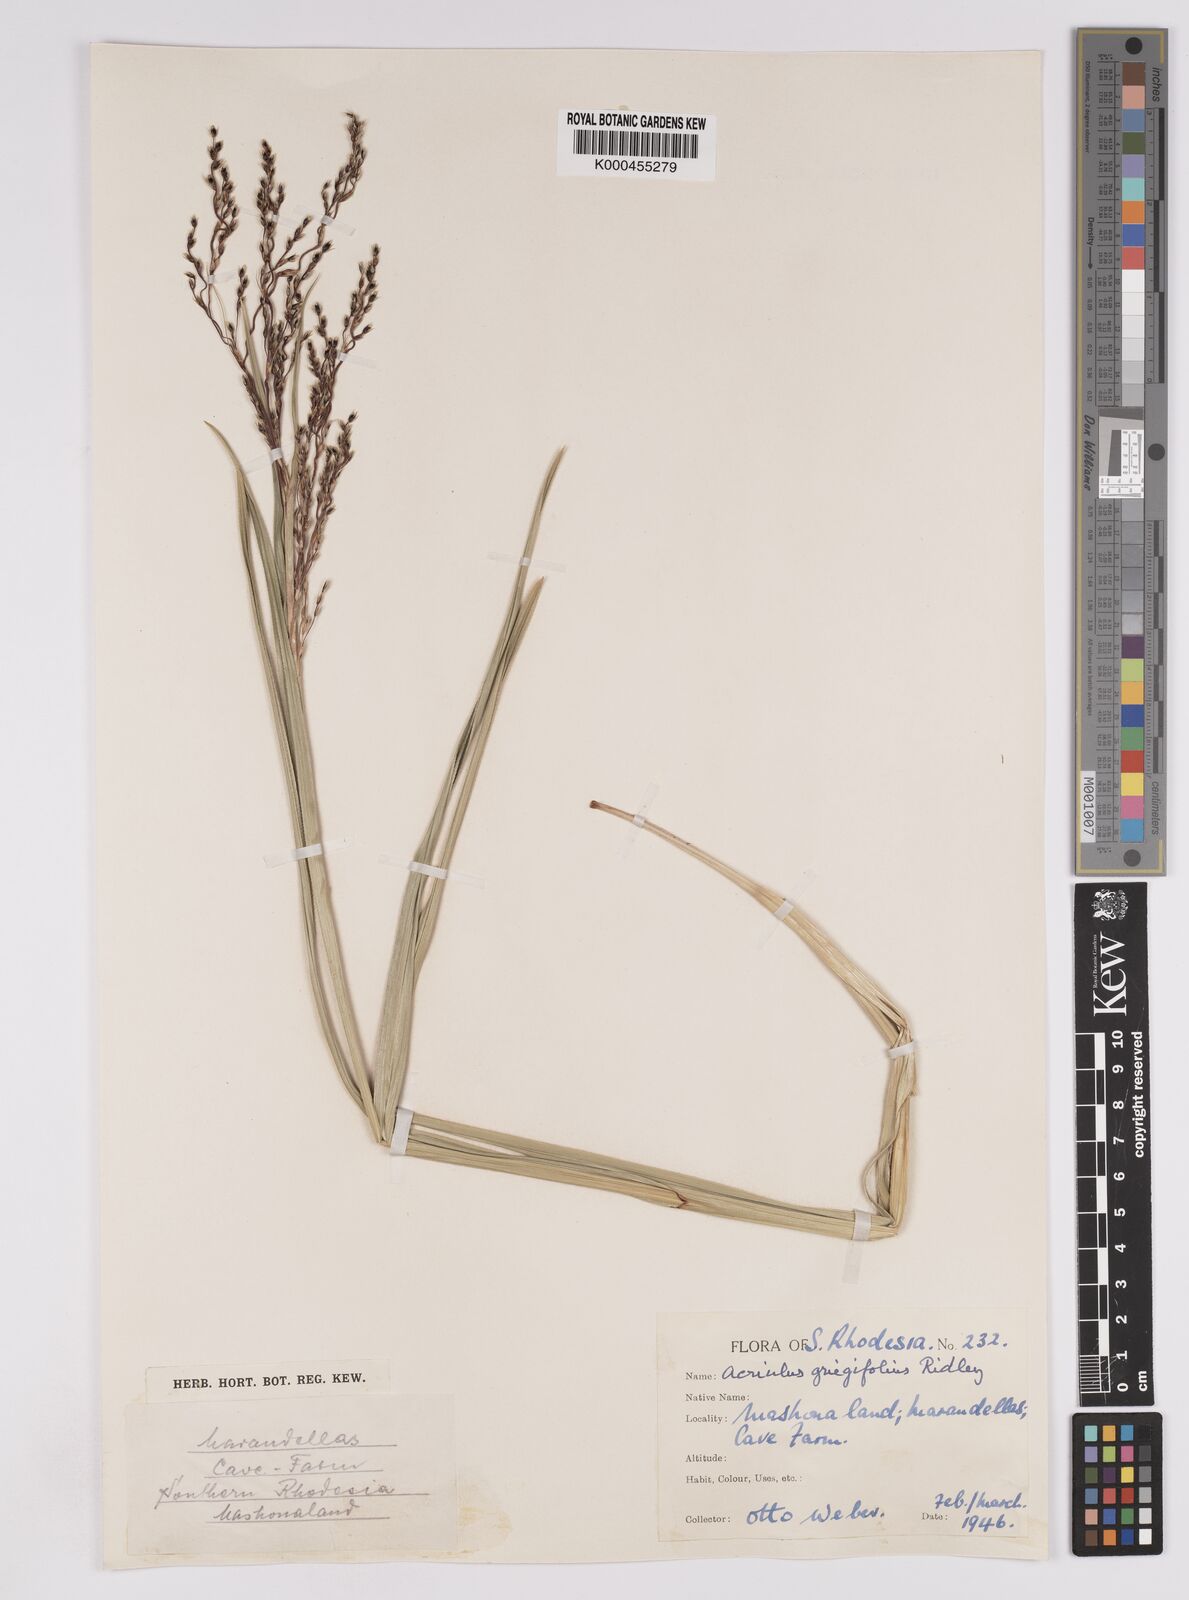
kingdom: Plantae
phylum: Tracheophyta
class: Liliopsida
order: Poales
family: Cyperaceae
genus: Scleria
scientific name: Scleria greigiifolia
